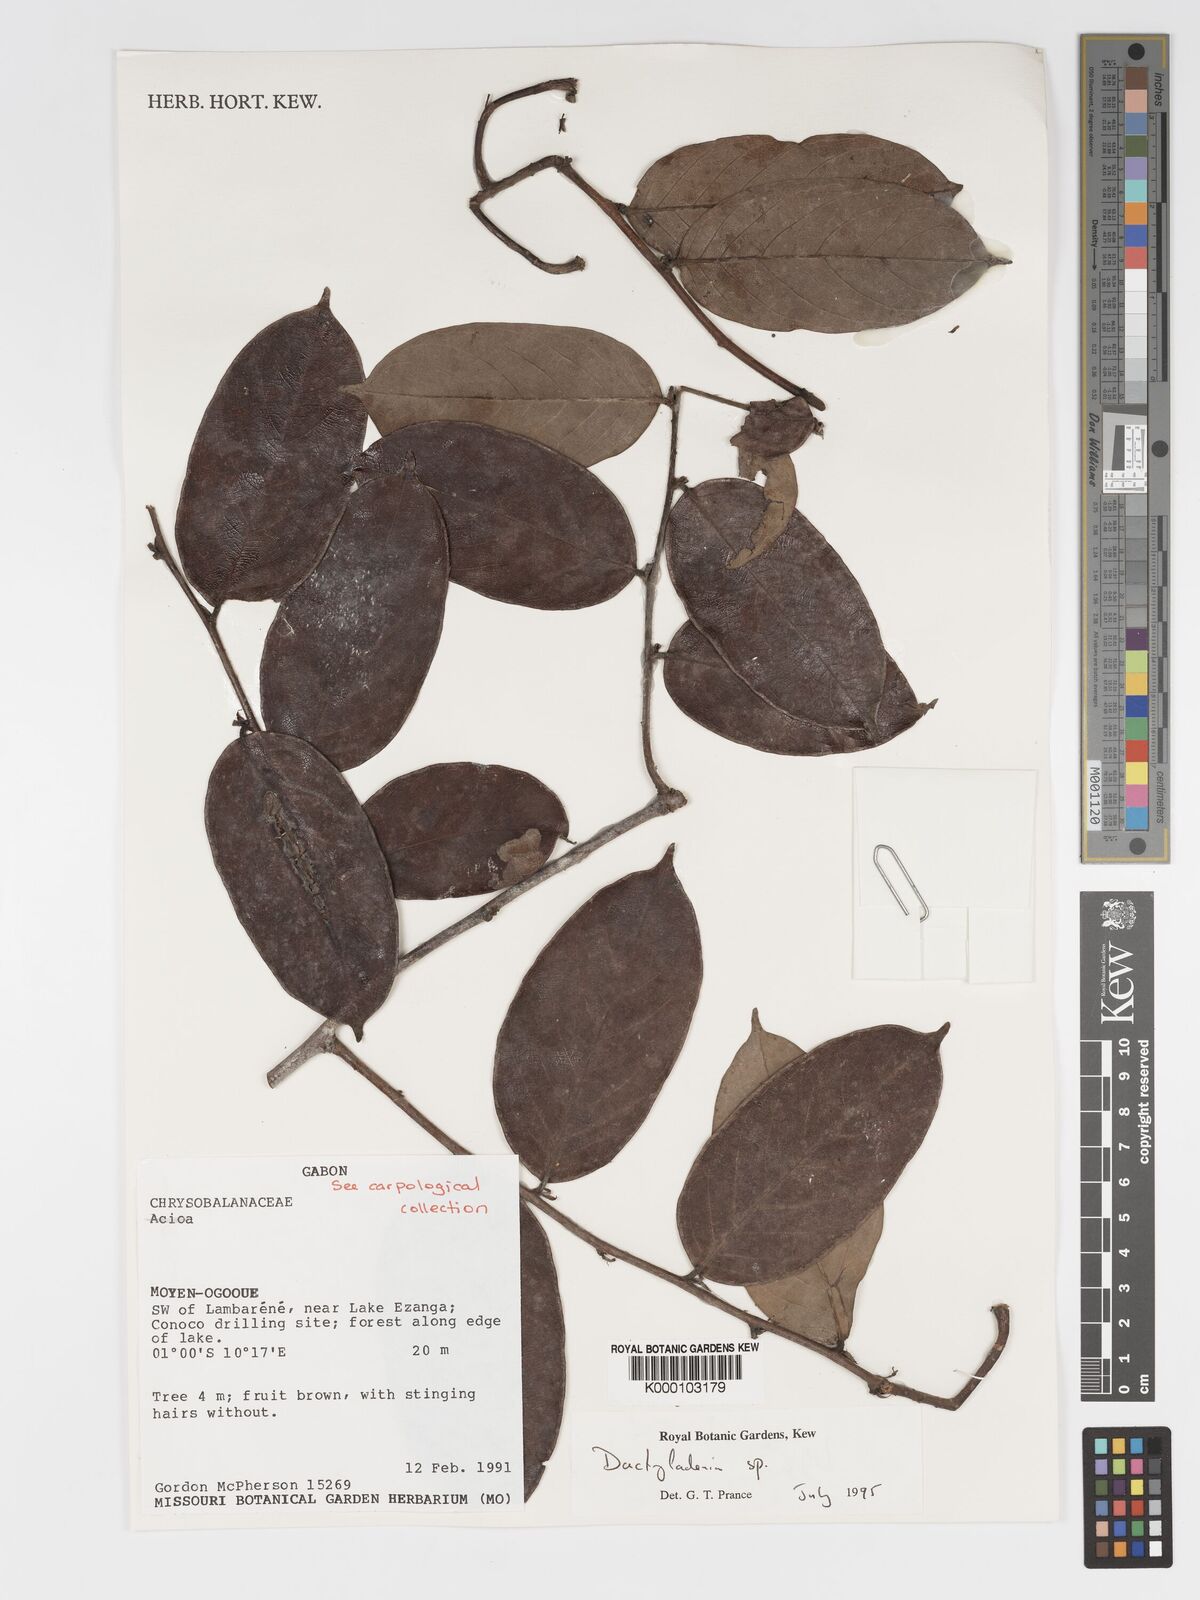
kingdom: Plantae
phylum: Tracheophyta
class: Magnoliopsida
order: Malpighiales
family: Chrysobalanaceae
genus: Dactyladenia
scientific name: Dactyladenia
